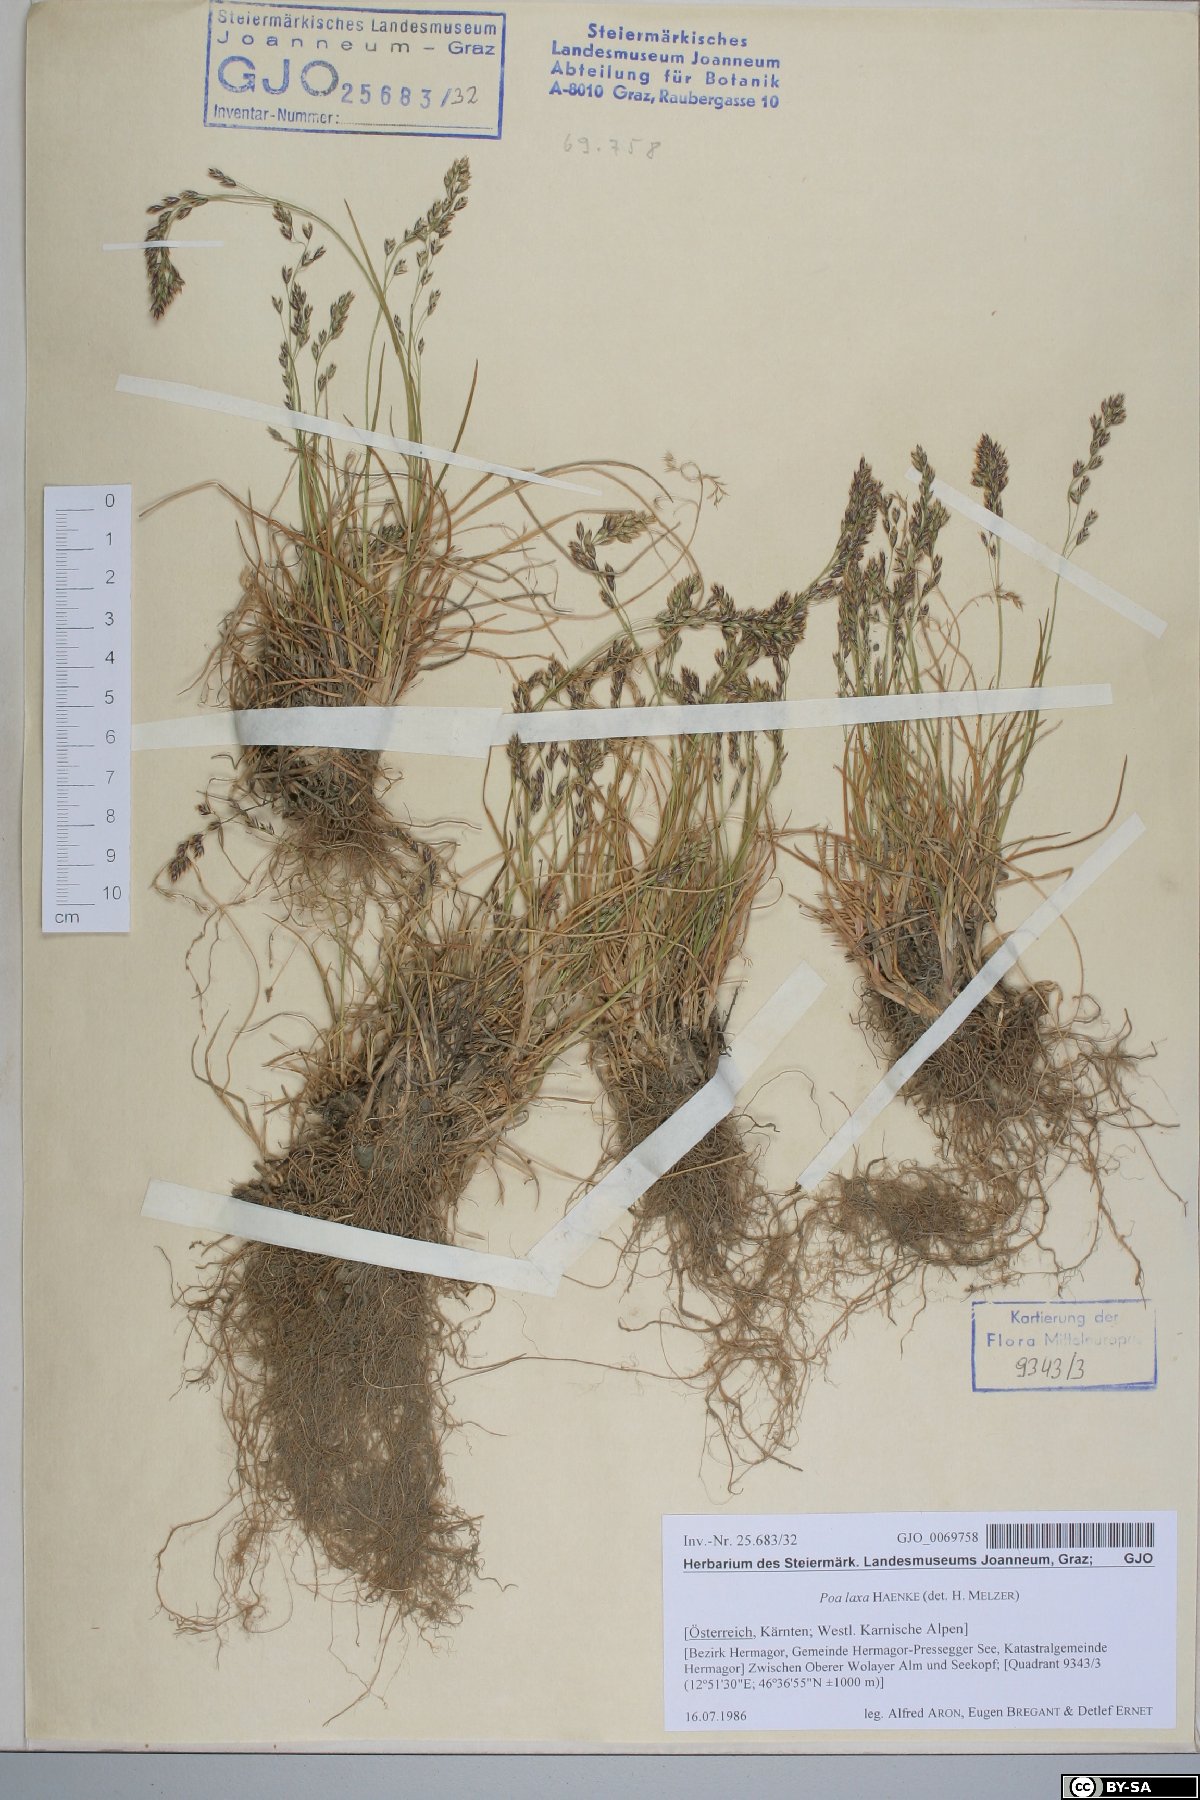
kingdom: Plantae
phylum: Tracheophyta
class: Liliopsida
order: Poales
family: Poaceae
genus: Poa
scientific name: Poa laxa
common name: Lax bluegrass
